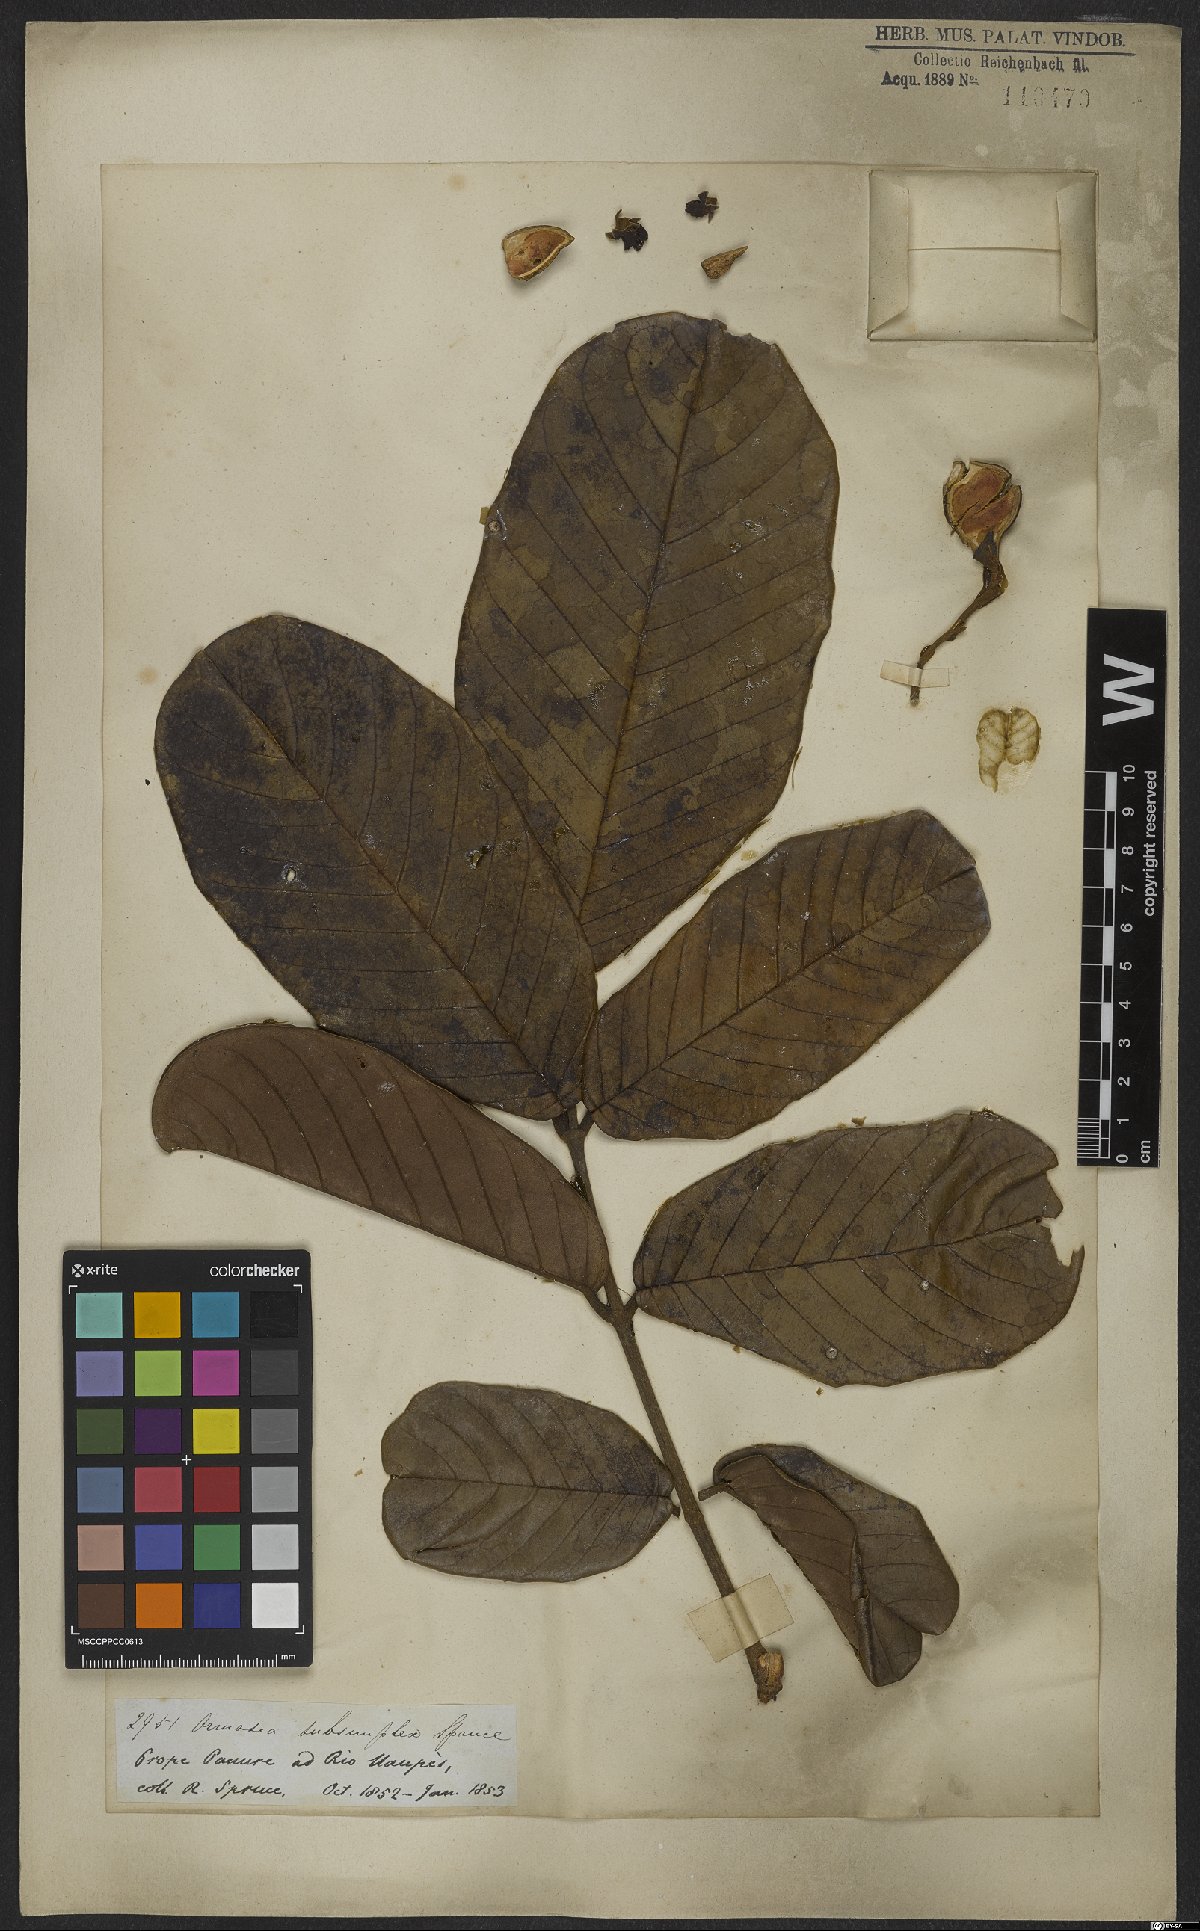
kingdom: Plantae
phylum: Tracheophyta
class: Magnoliopsida
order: Fabales
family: Fabaceae
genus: Ormosia
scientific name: Ormosia subsimplex
